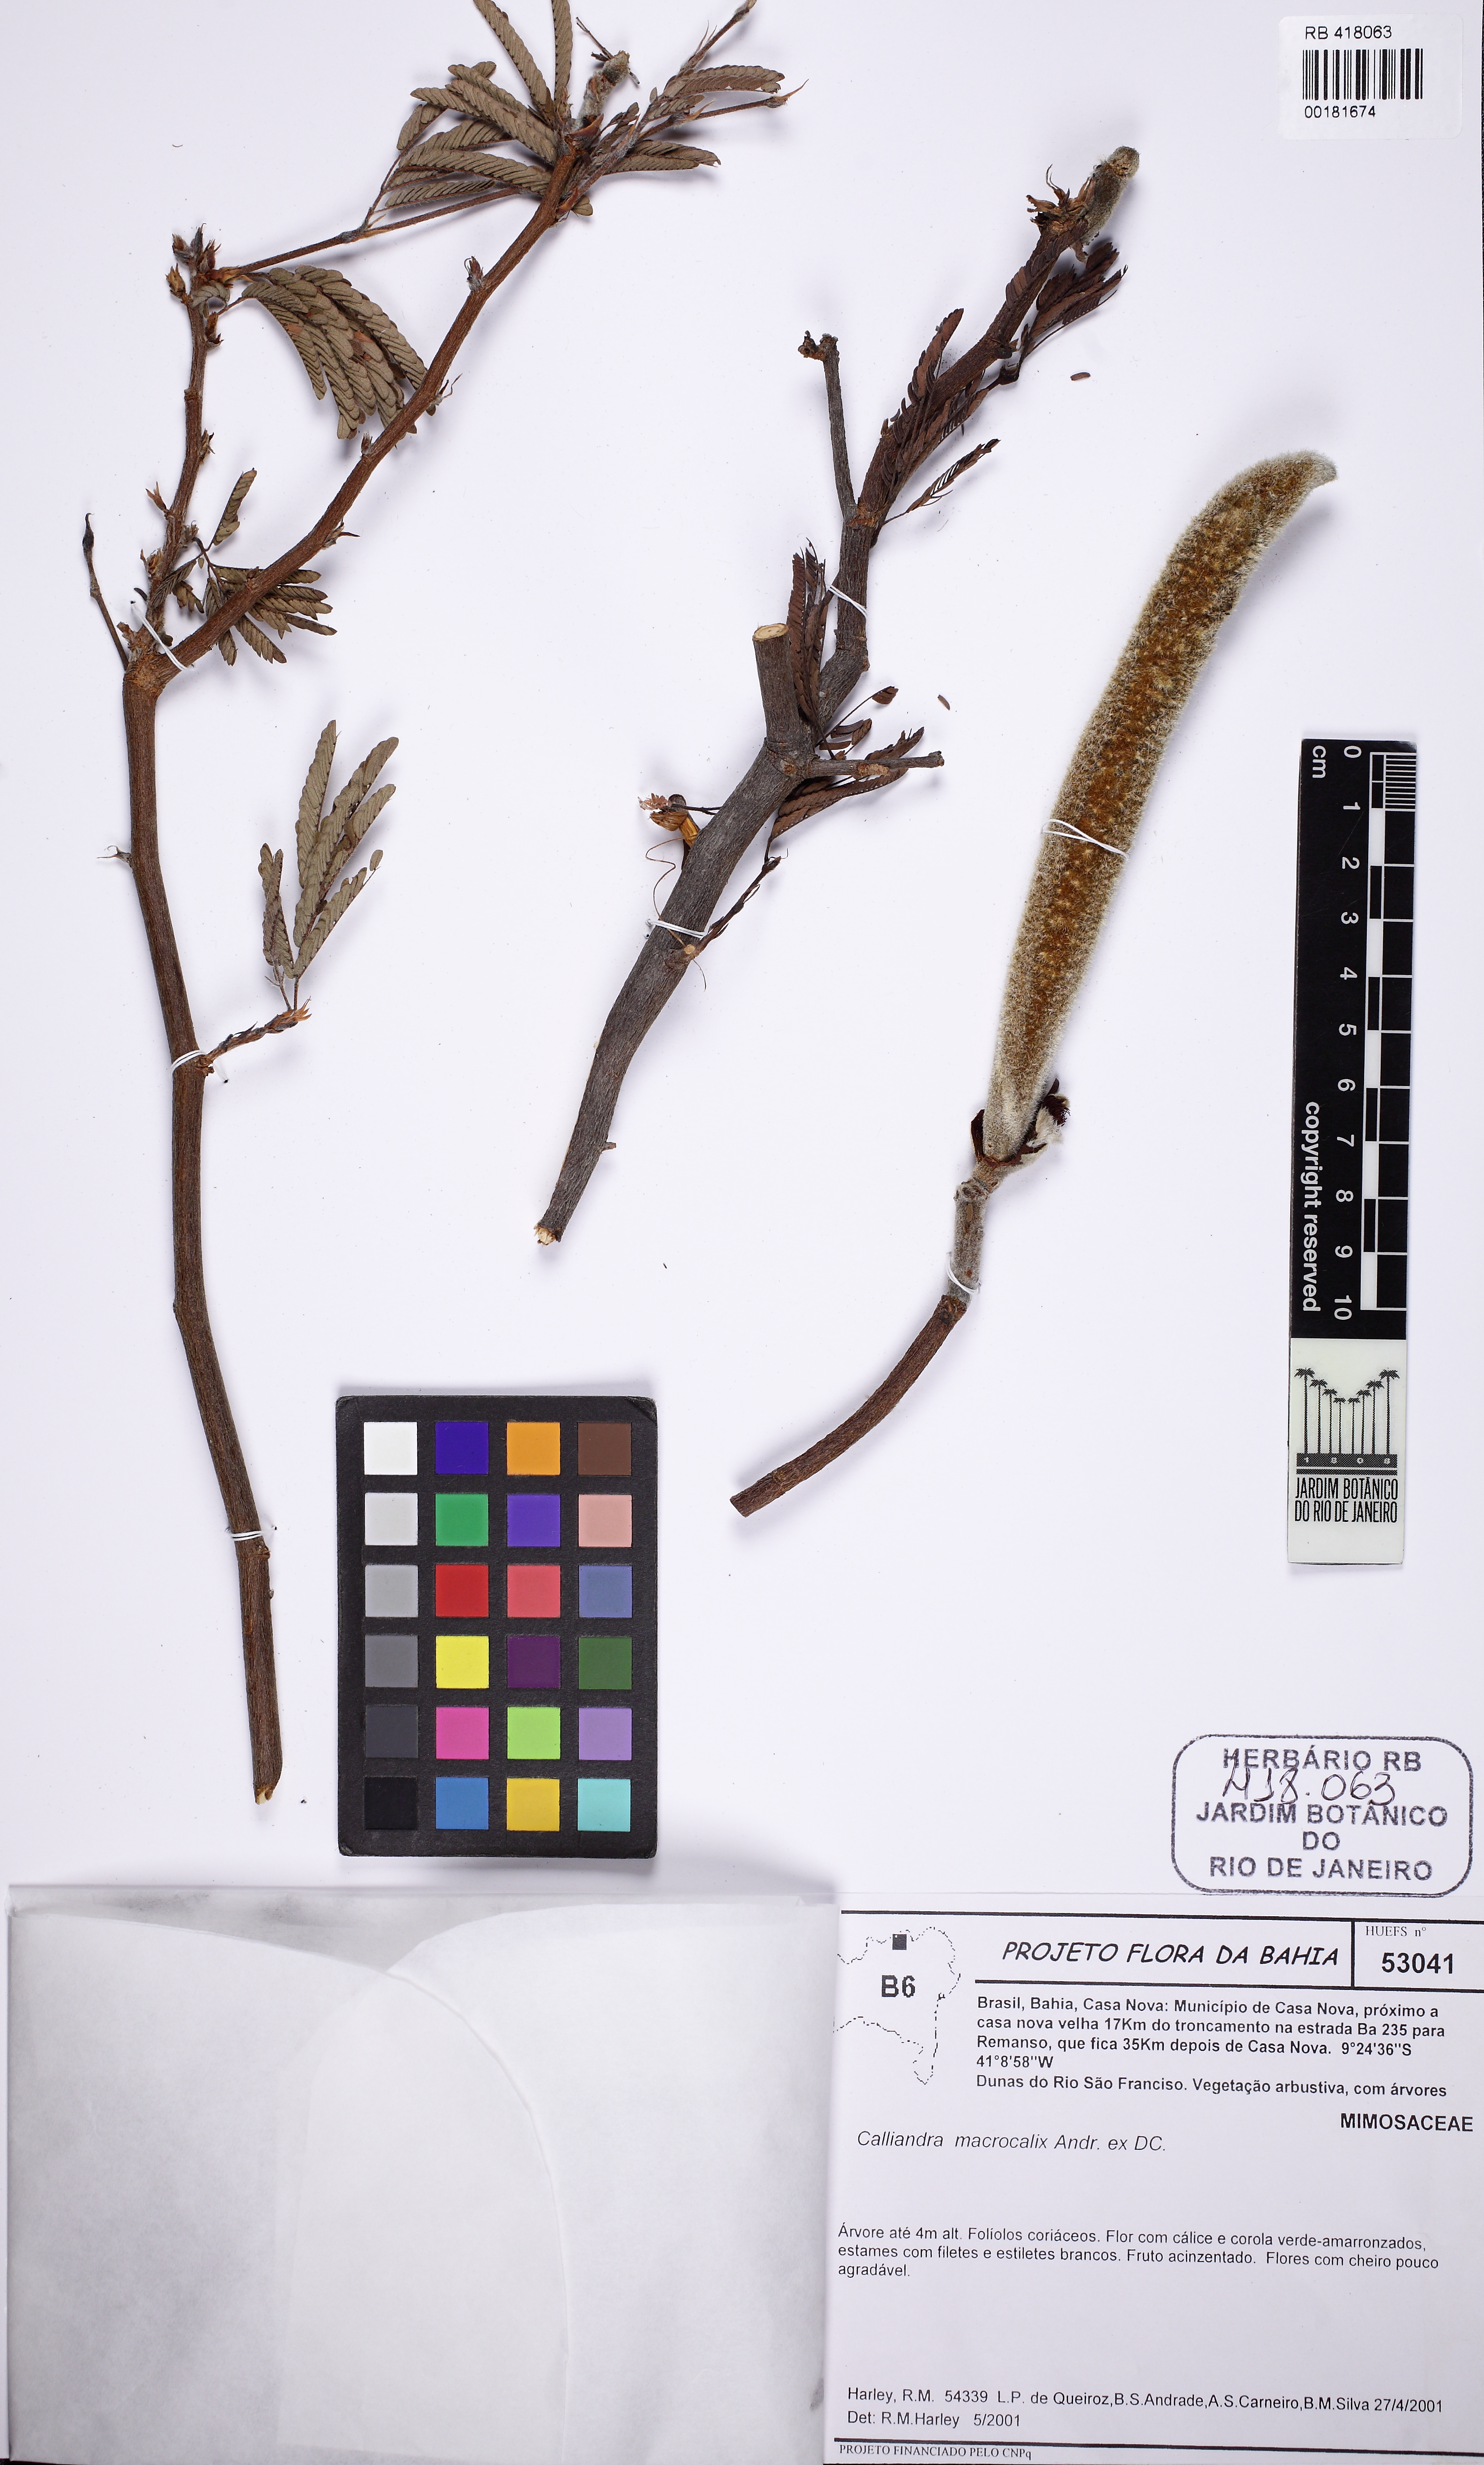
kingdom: Plantae
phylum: Tracheophyta
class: Magnoliopsida
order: Fabales
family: Fabaceae
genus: Calliandra
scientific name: Calliandra macrocalyx
